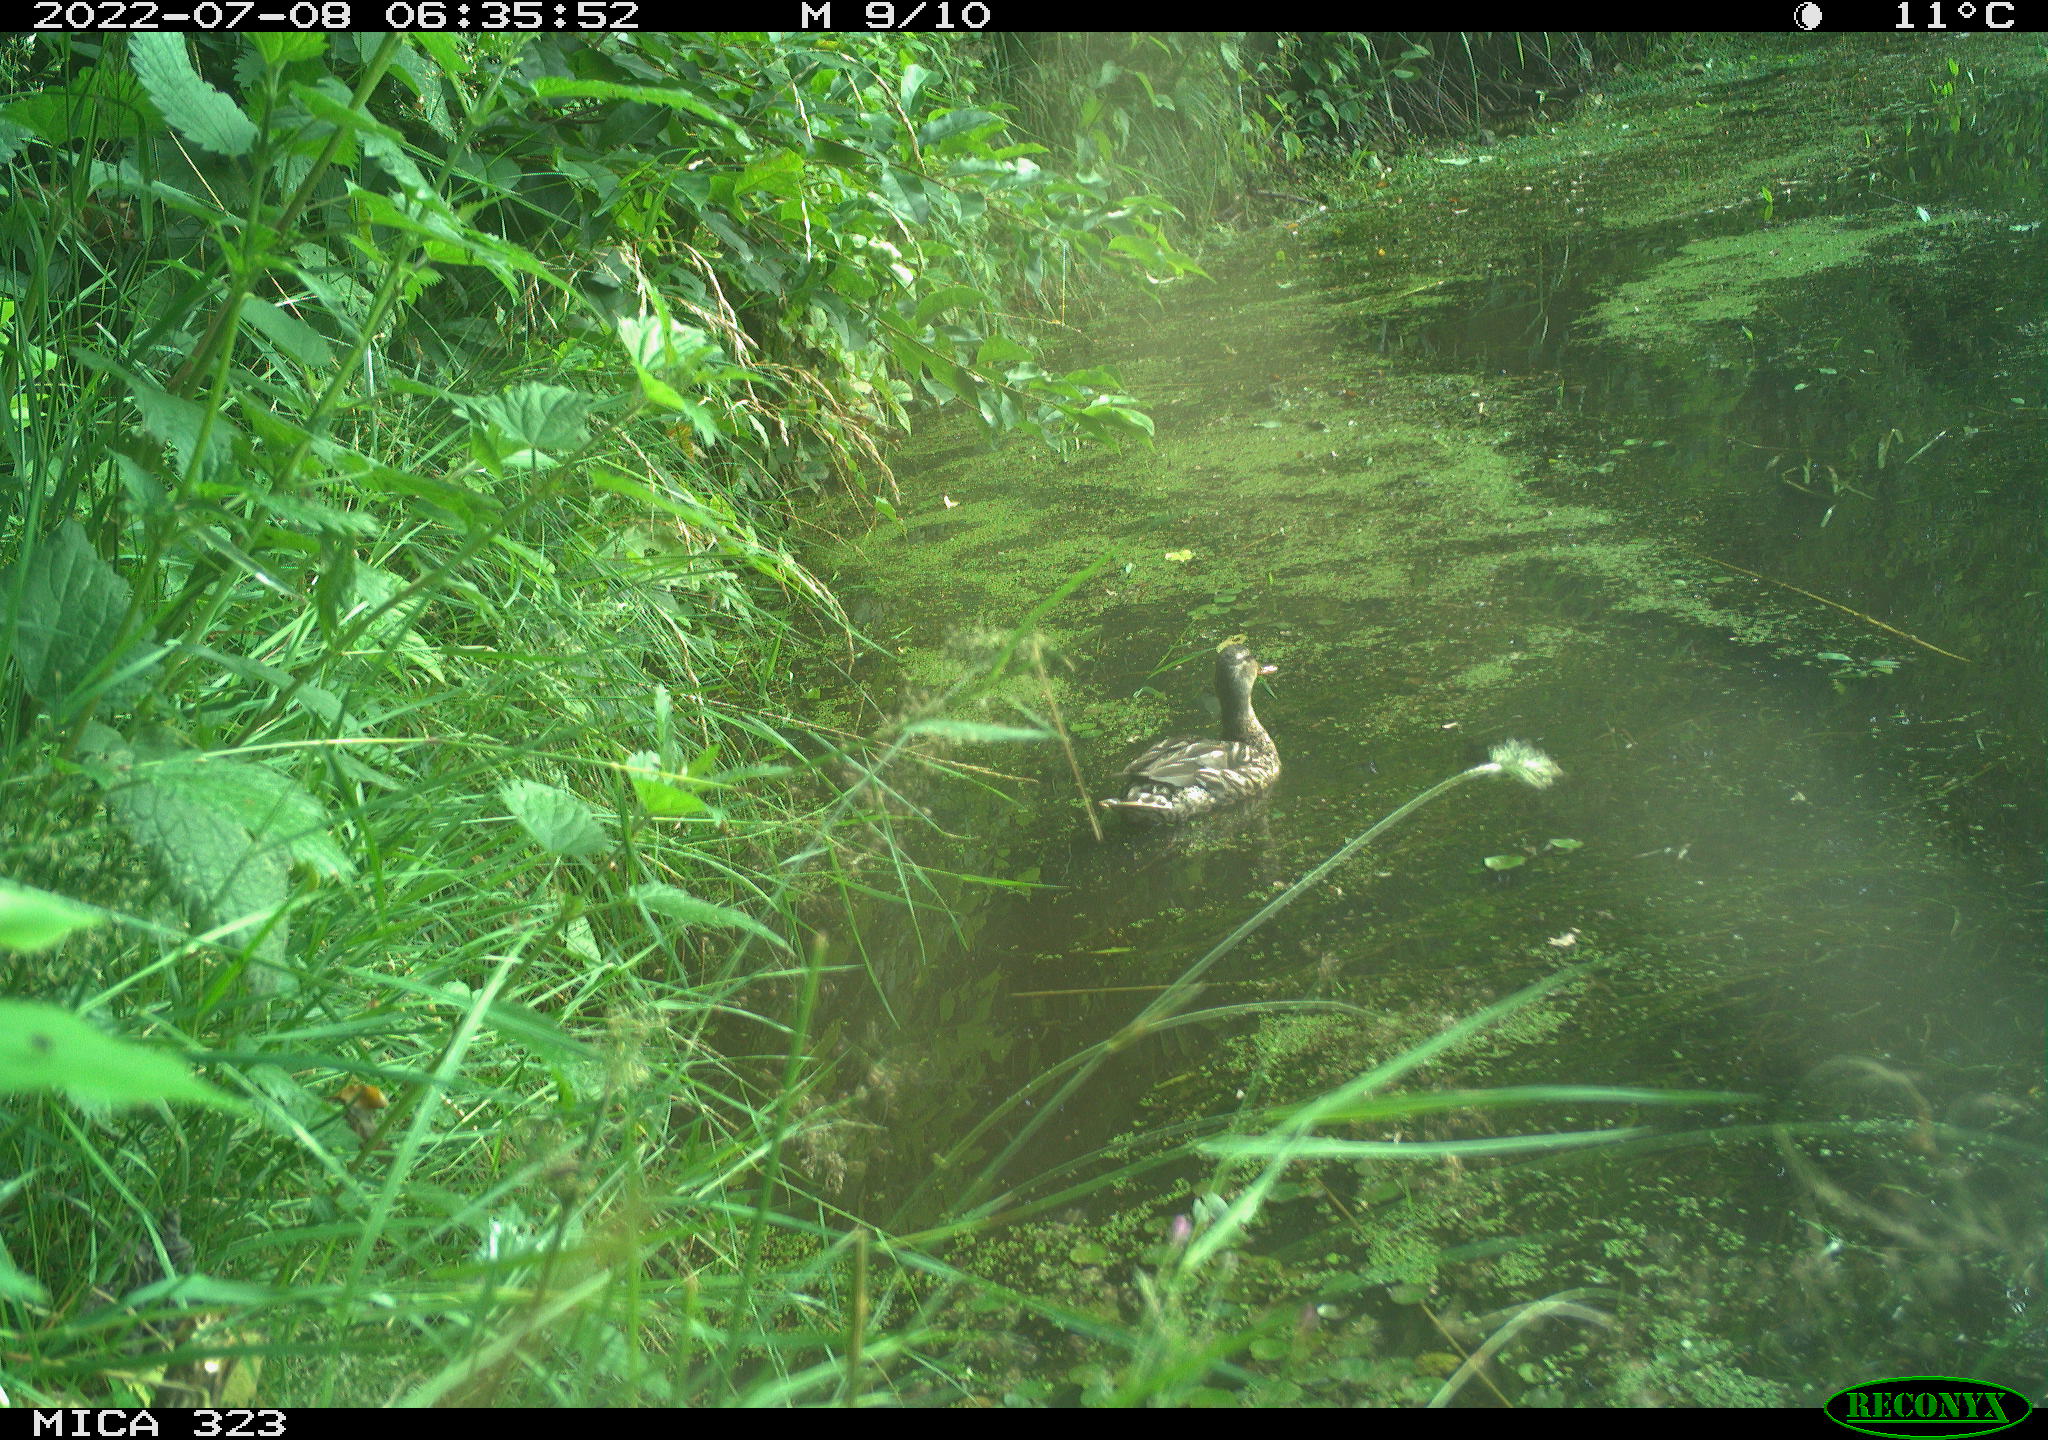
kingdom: Animalia
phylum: Chordata
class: Aves
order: Anseriformes
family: Anatidae
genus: Anas
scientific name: Anas platyrhynchos
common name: Mallard
